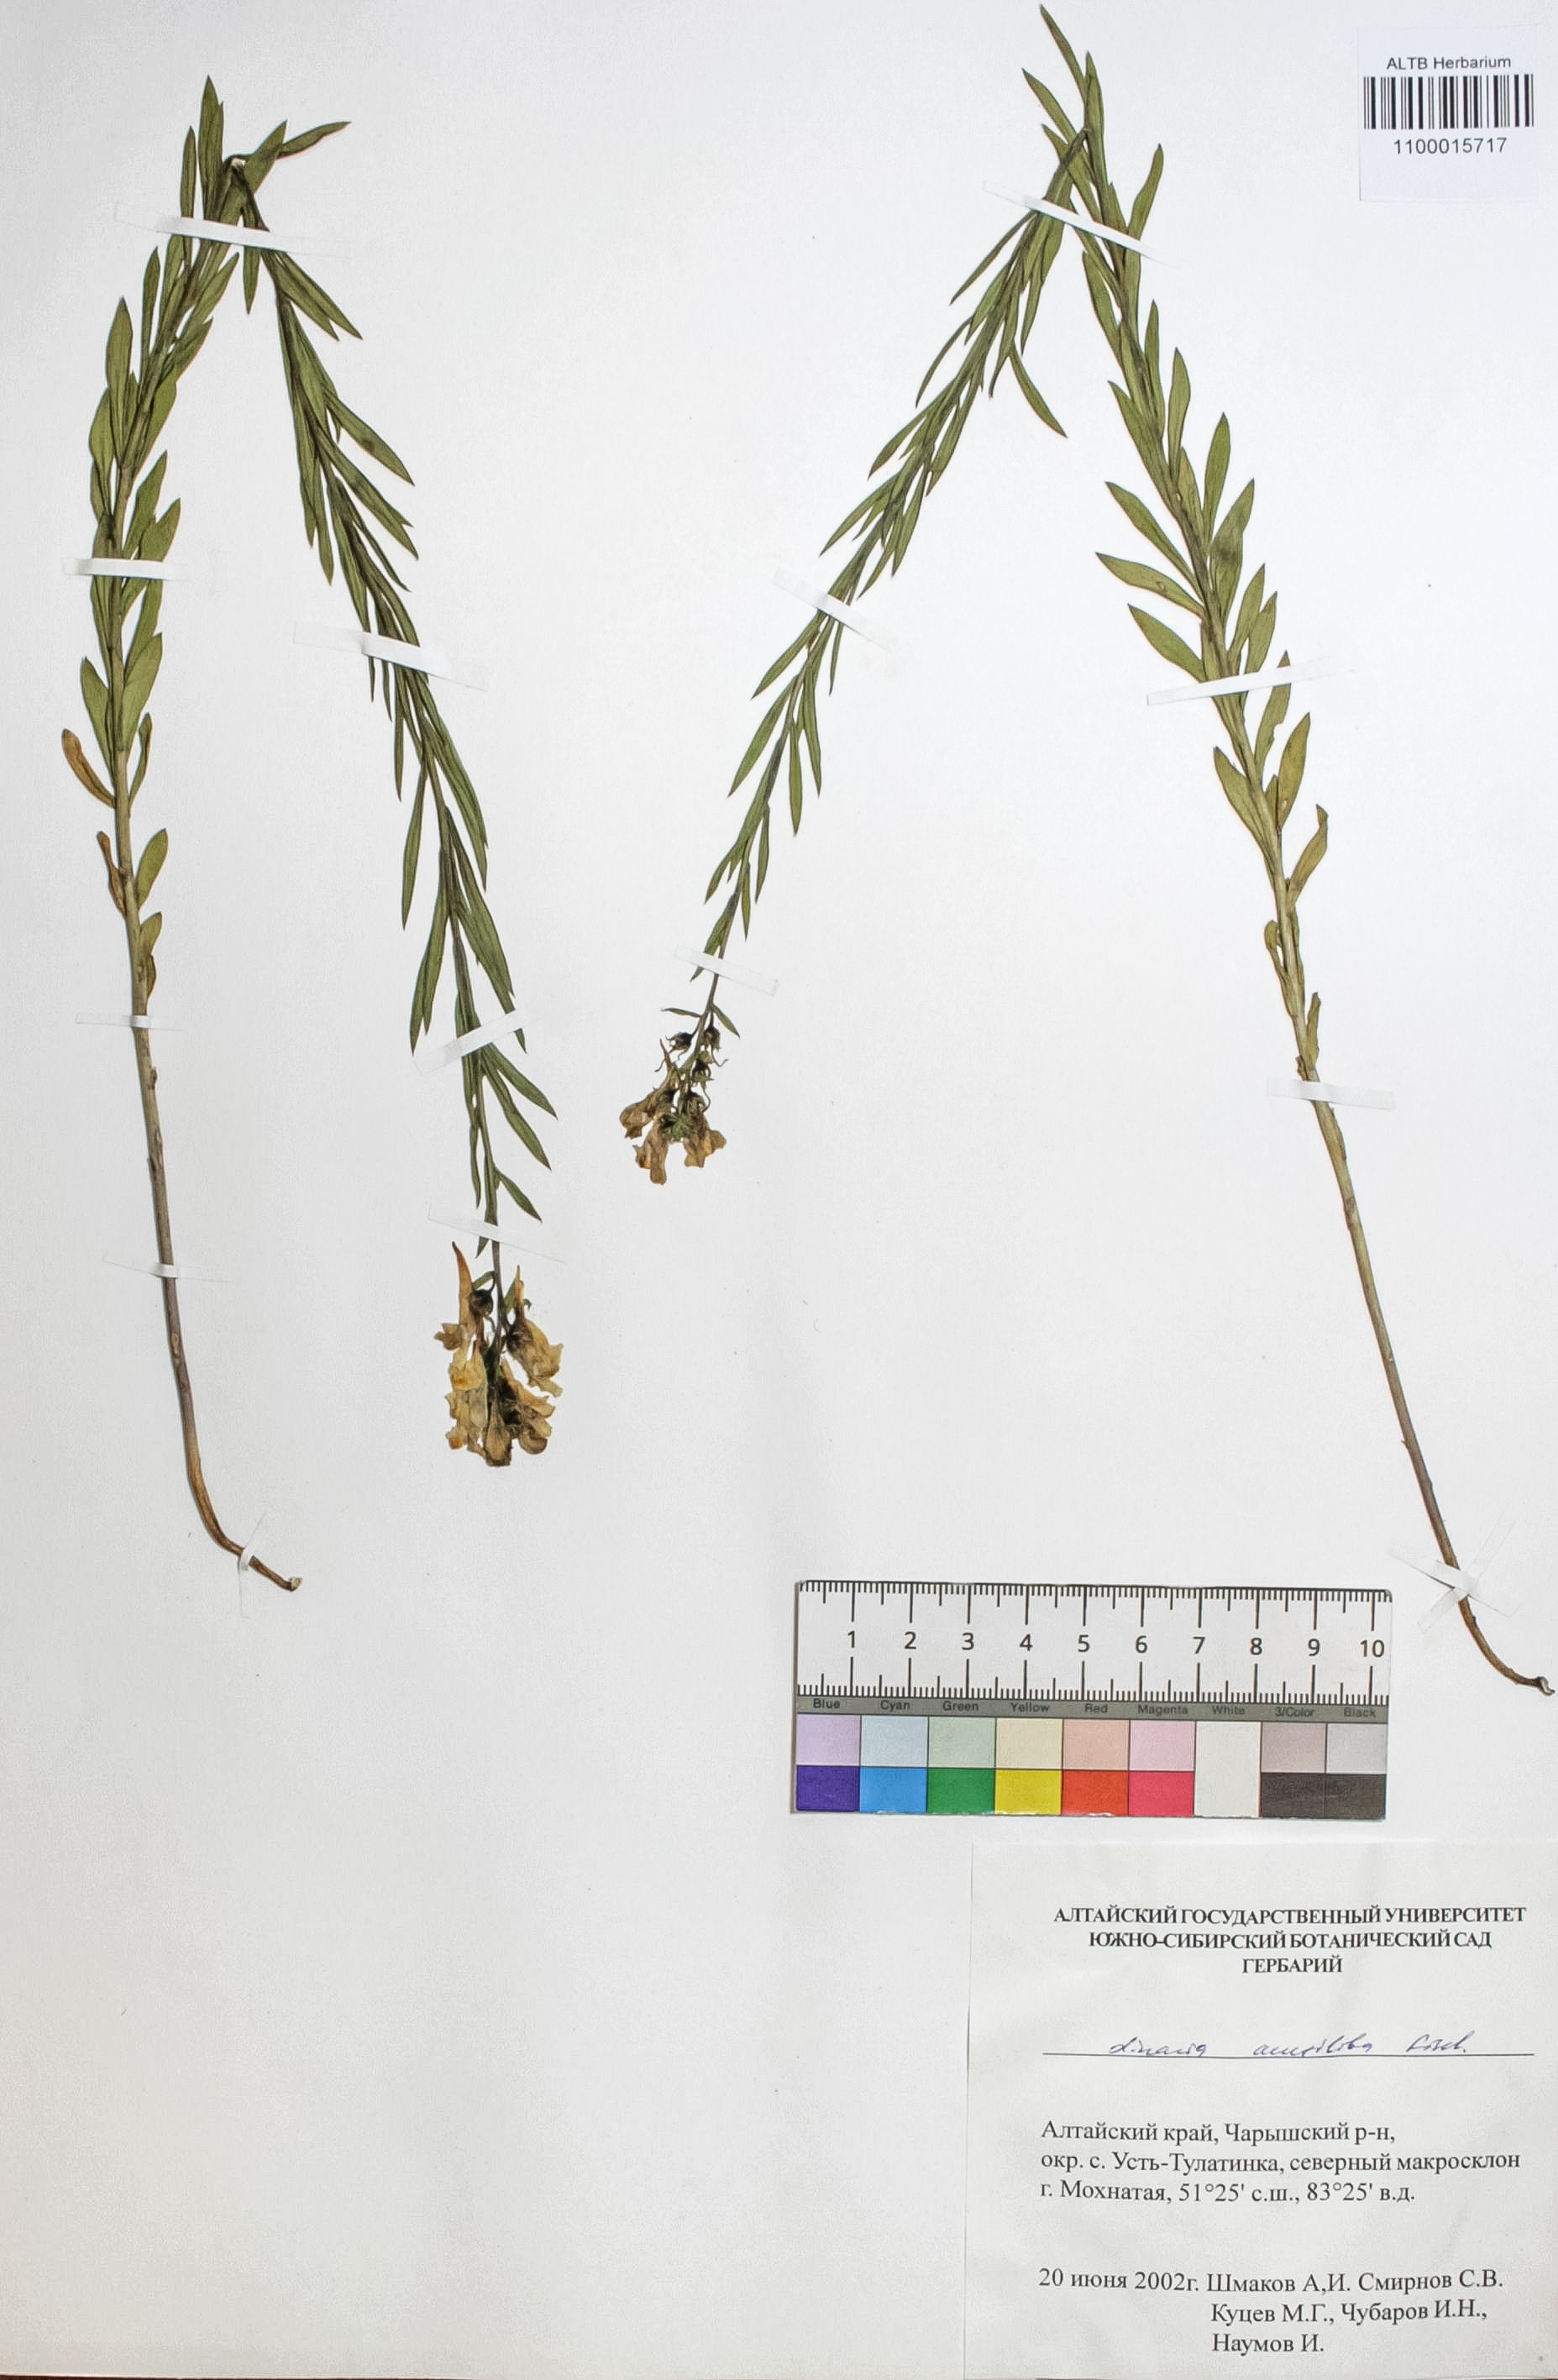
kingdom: Plantae
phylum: Tracheophyta
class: Magnoliopsida
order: Lamiales
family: Plantaginaceae
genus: Linaria
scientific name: Linaria acutiloba
